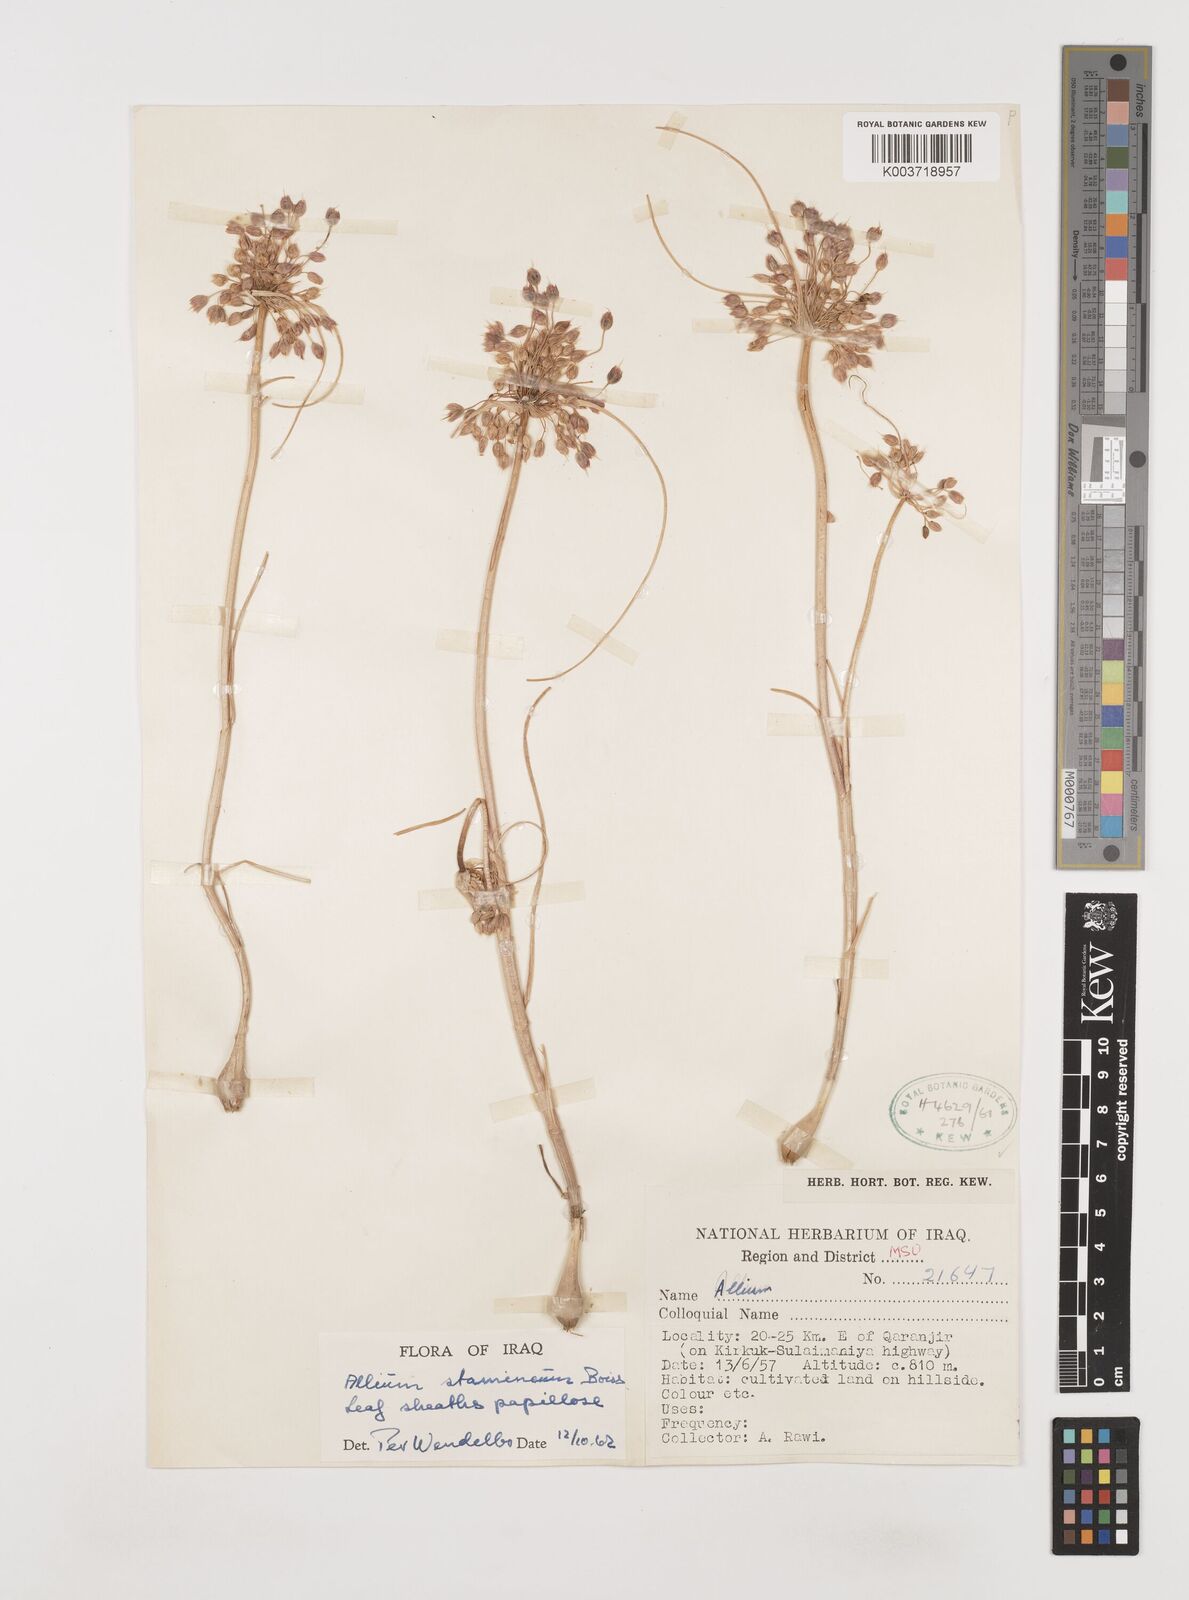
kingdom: Plantae
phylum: Tracheophyta
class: Liliopsida
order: Asparagales
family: Amaryllidaceae
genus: Allium
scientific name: Allium stamineum
